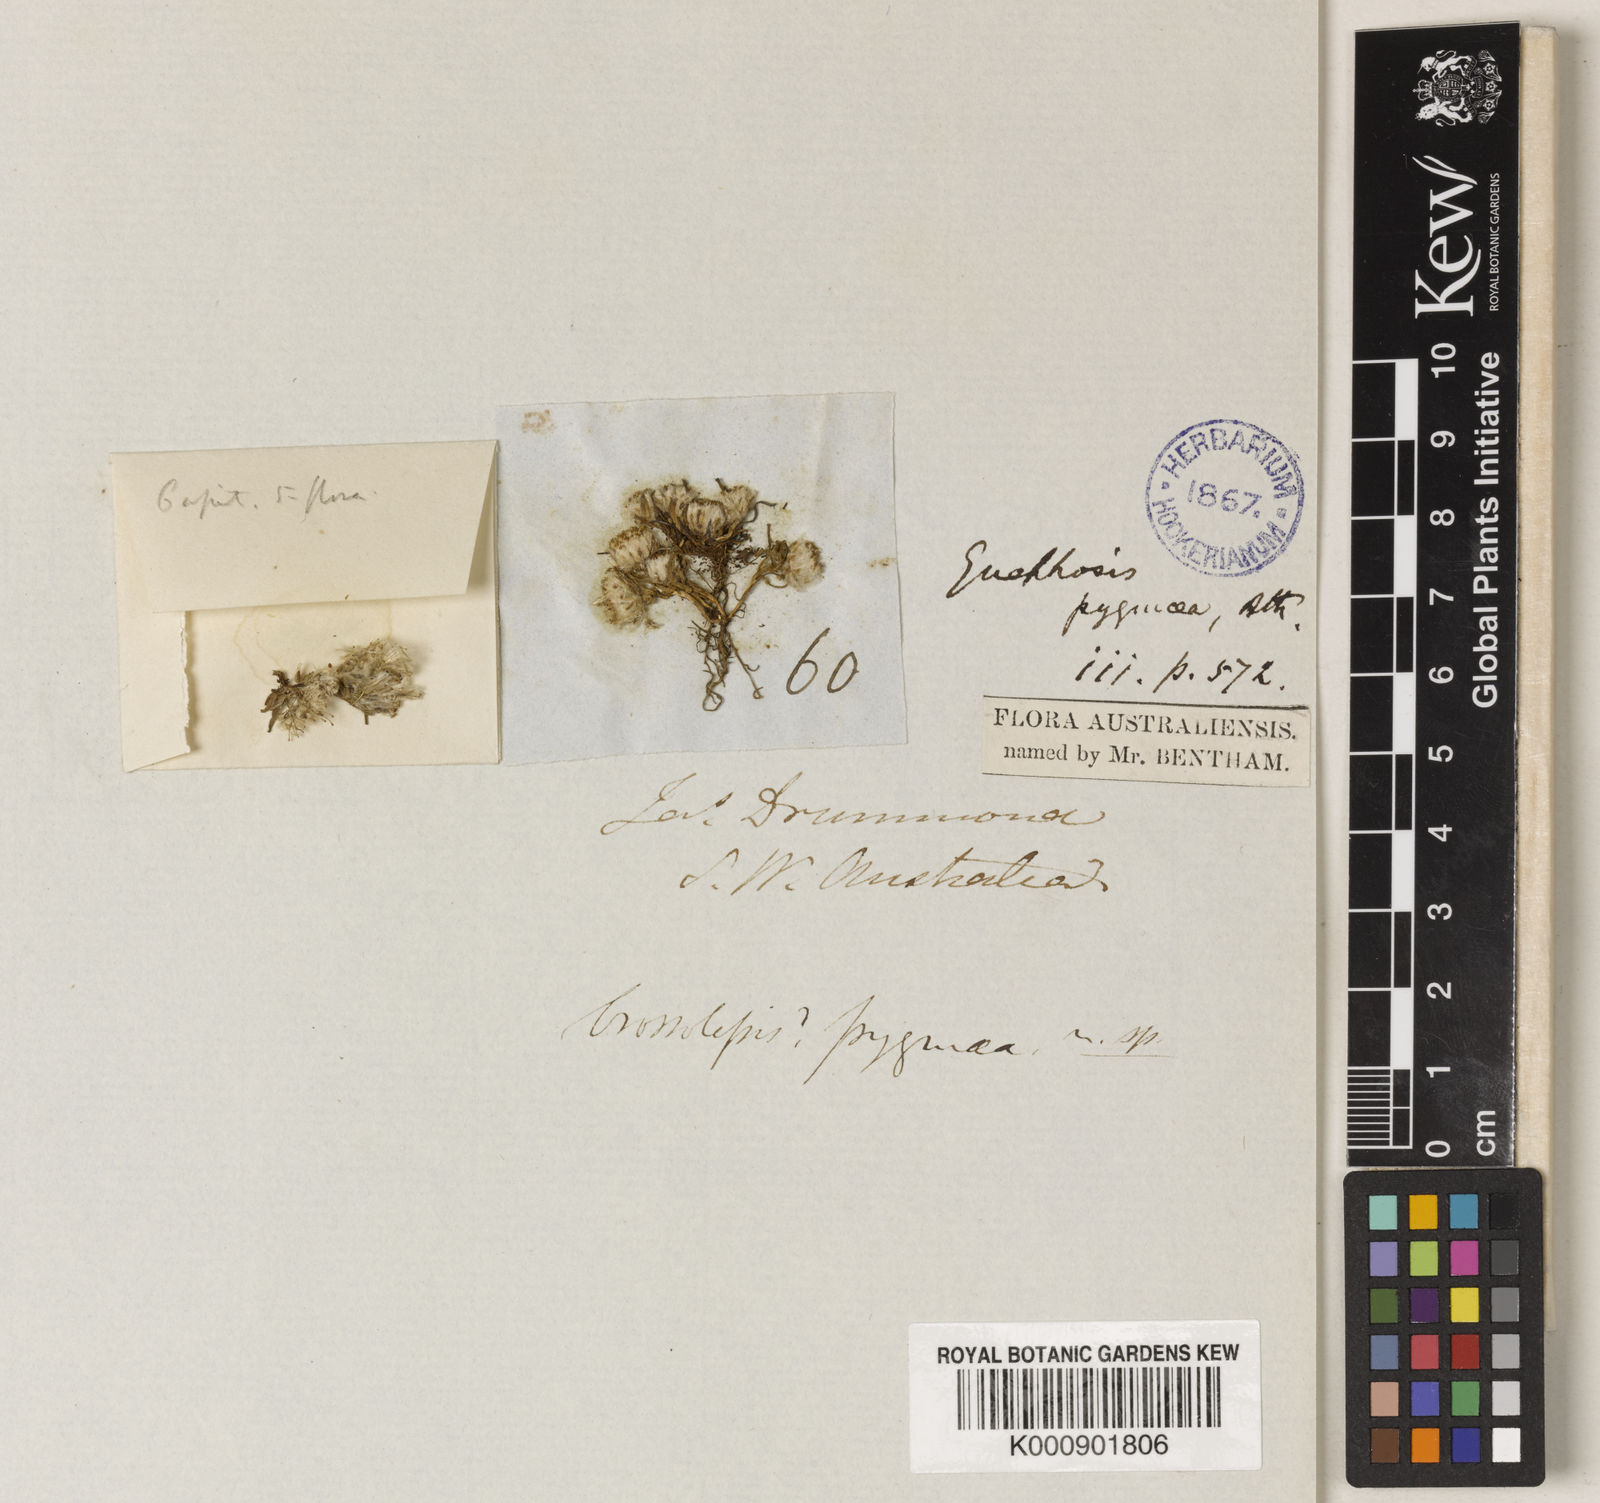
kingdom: Plantae
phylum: Tracheophyta
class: Magnoliopsida
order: Asterales
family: Asteraceae
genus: Myriocephalus
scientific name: Myriocephalus pygmaea
